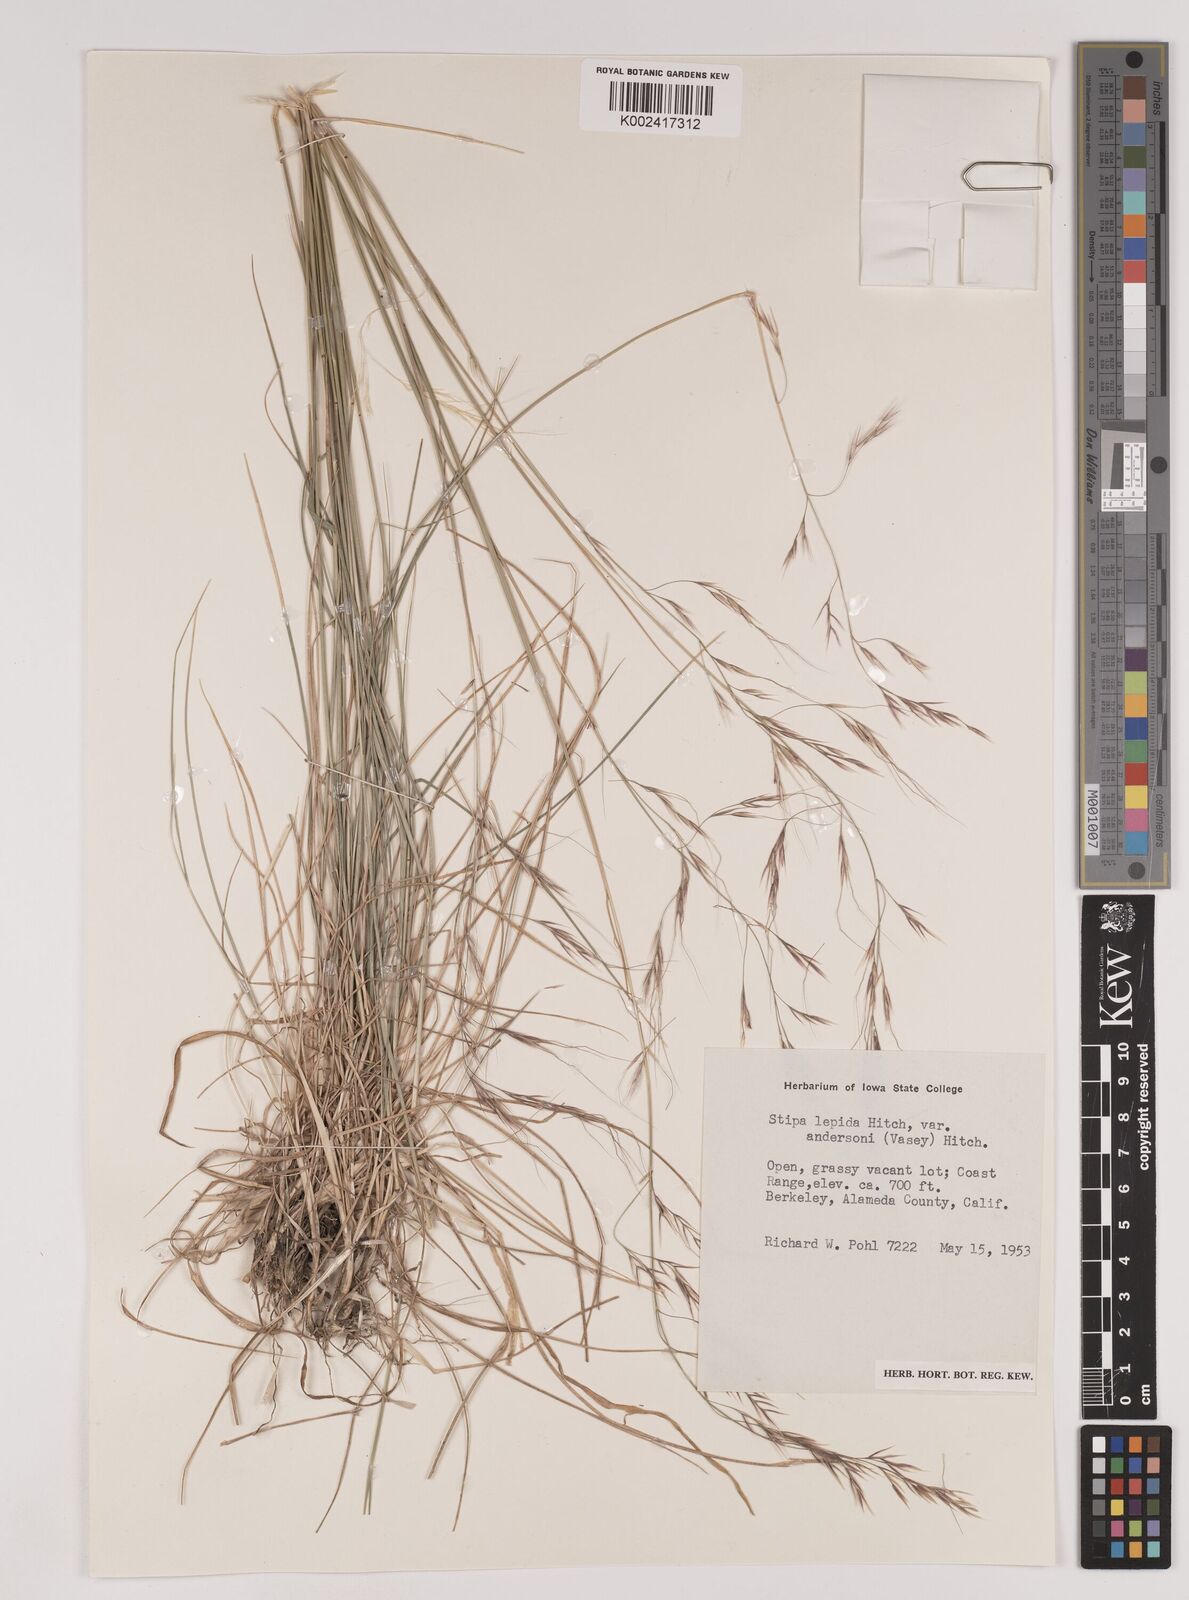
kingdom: Plantae
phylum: Tracheophyta
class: Liliopsida
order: Poales
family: Poaceae
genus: Nassella
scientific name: Nassella lepida
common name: Foothill needlegrass
